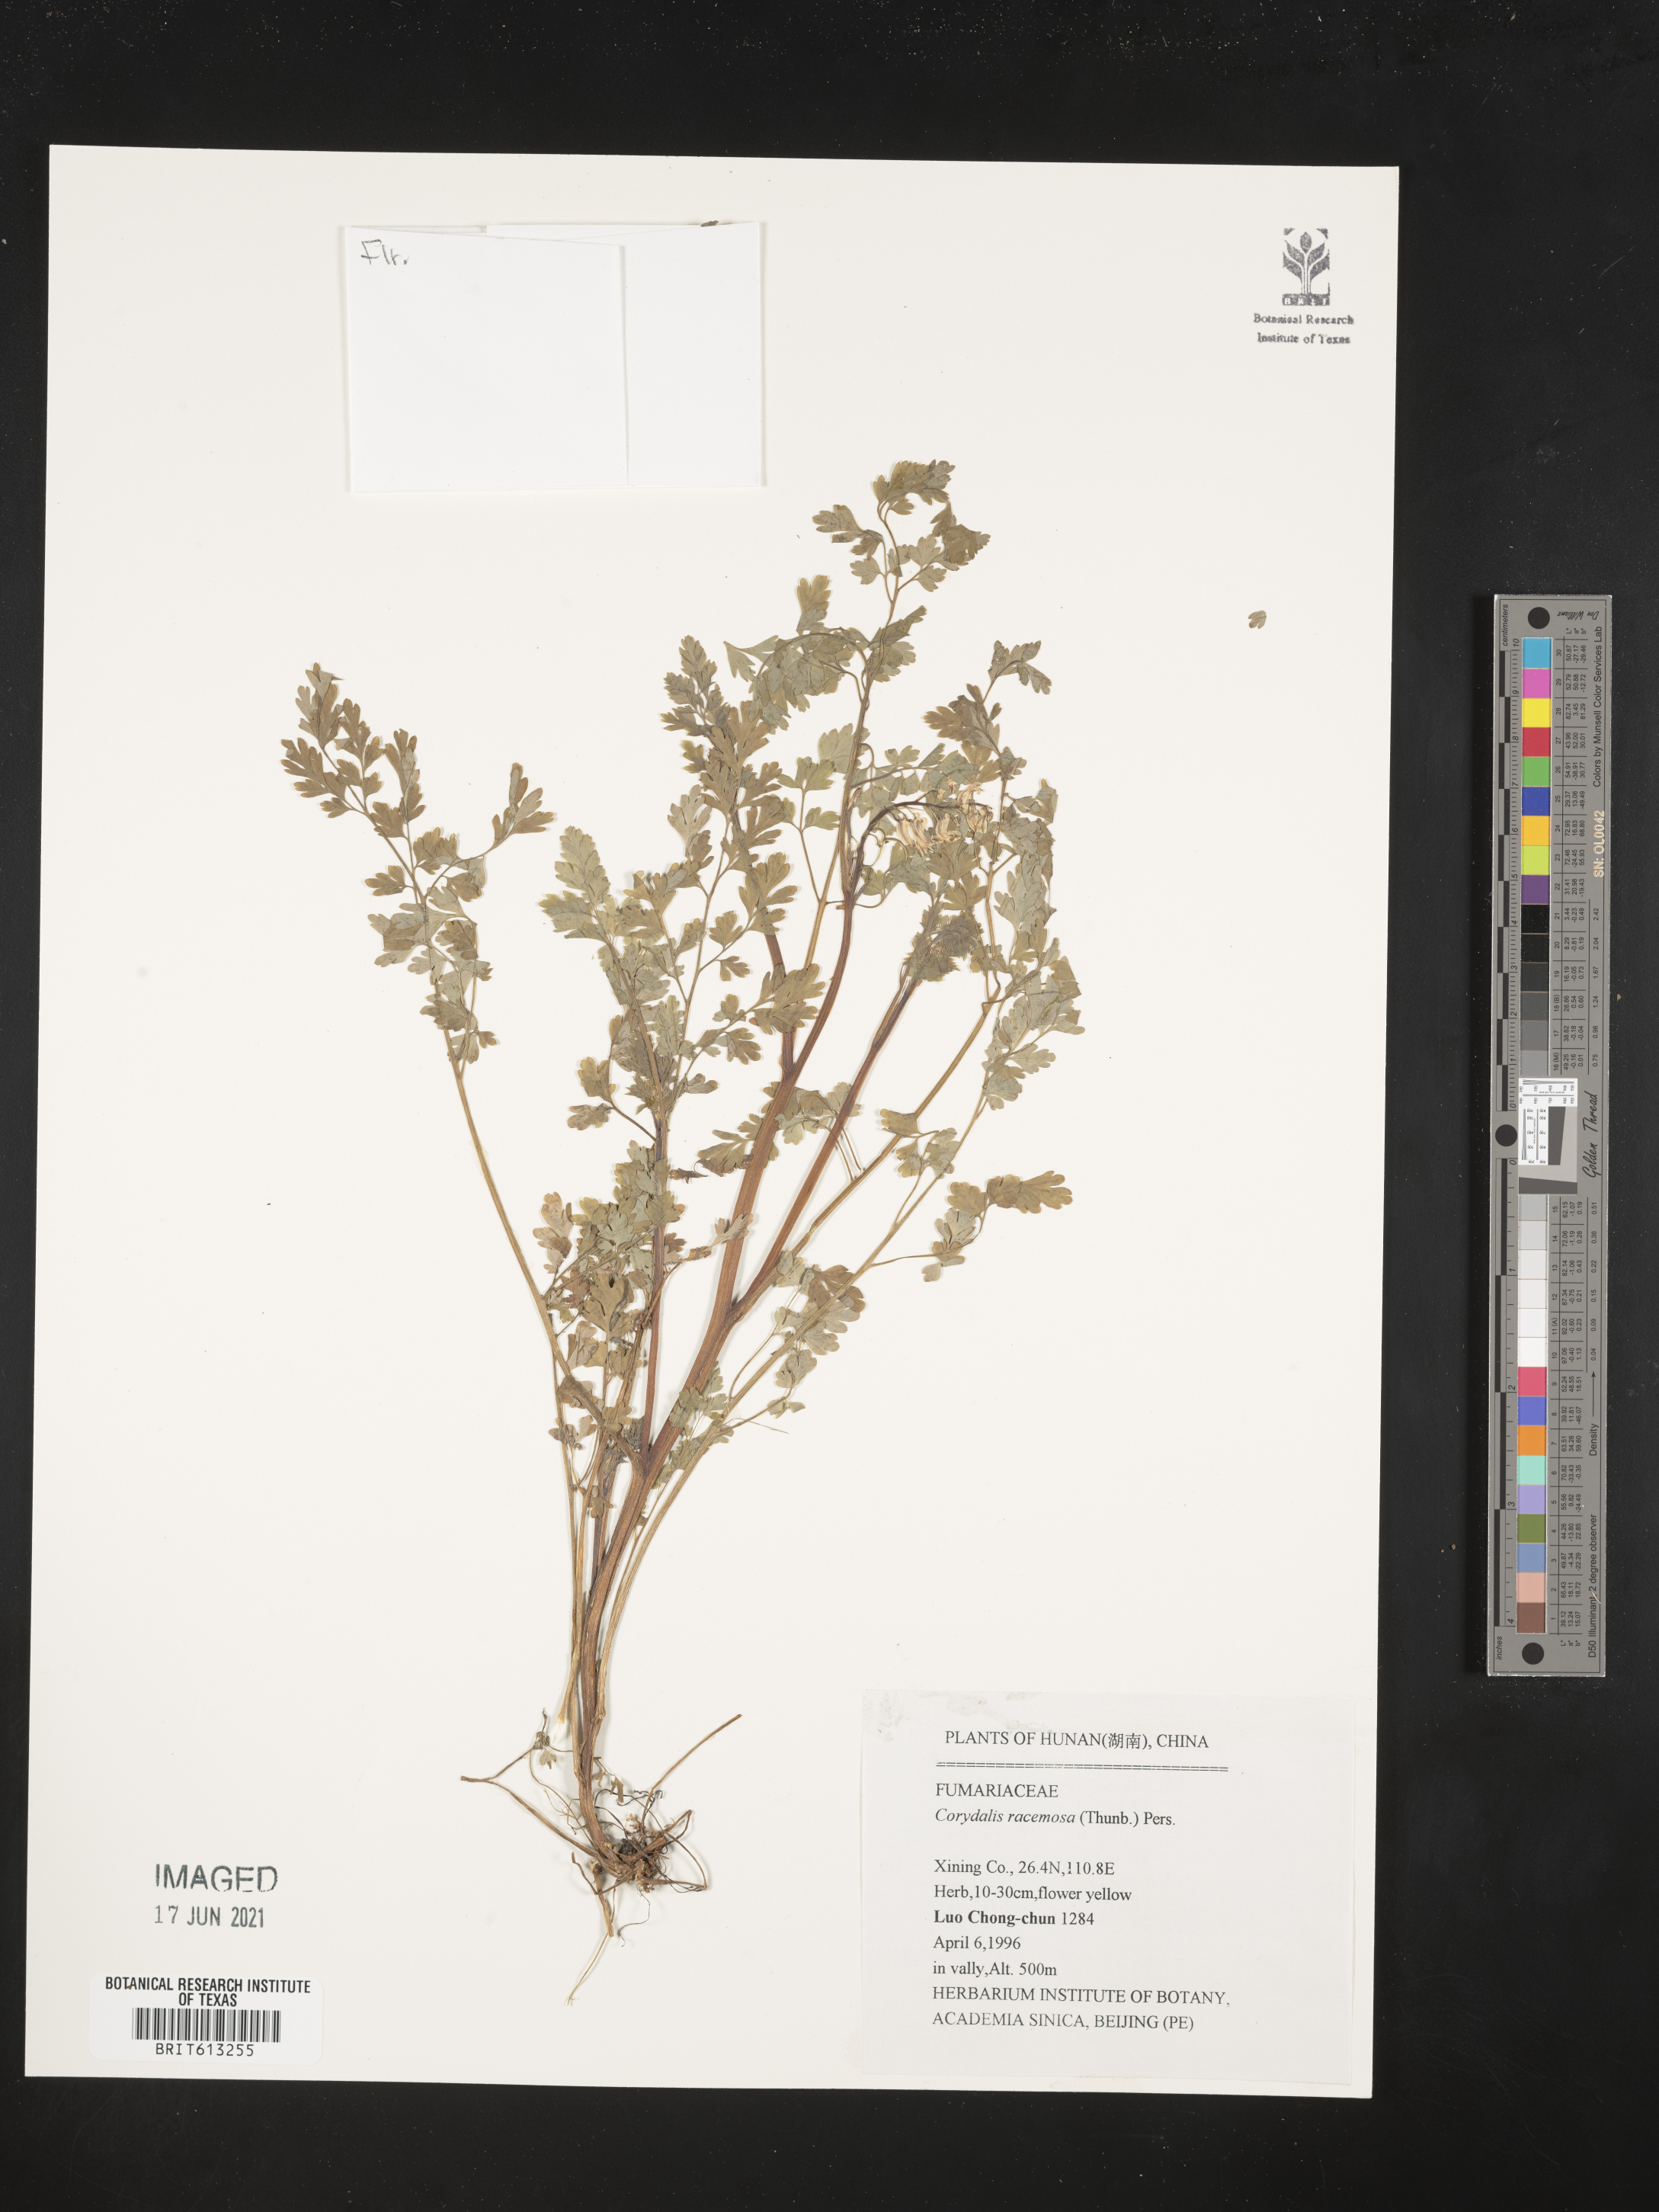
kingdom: Plantae
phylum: Tracheophyta
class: Magnoliopsida
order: Ranunculales
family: Papaveraceae
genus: Corydalis
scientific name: Corydalis racemosa
